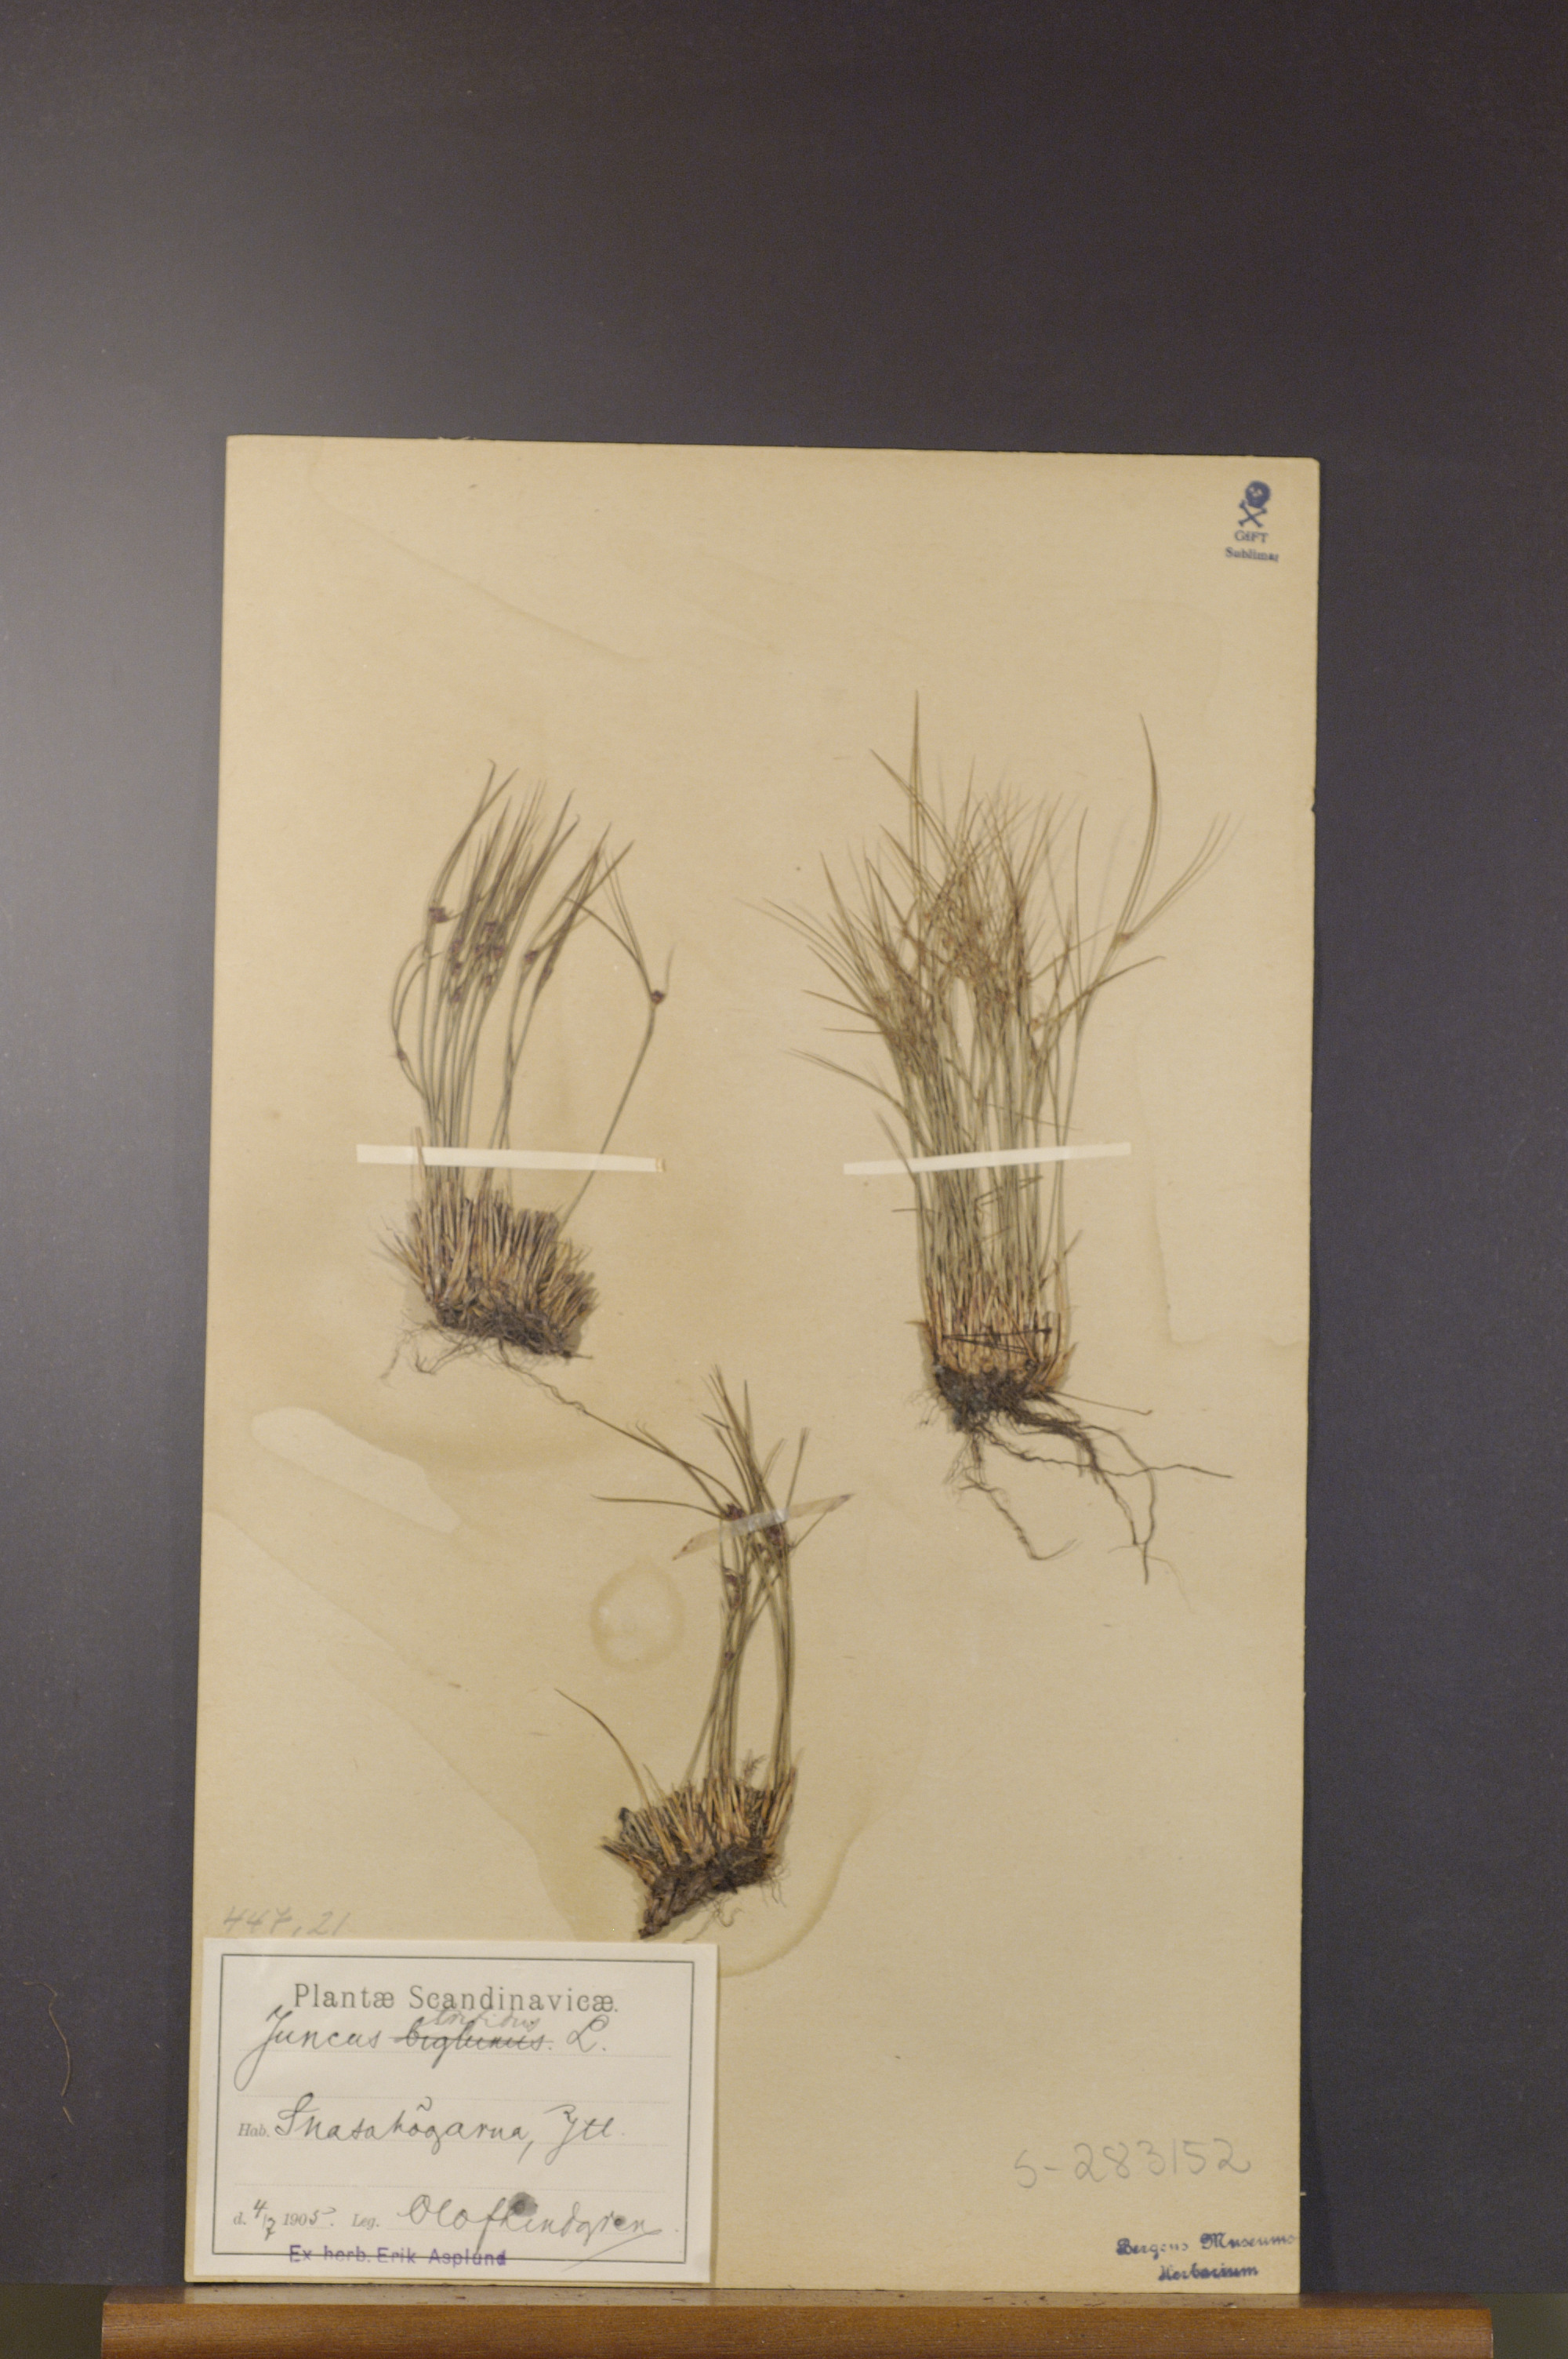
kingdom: Plantae
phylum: Tracheophyta
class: Liliopsida
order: Poales
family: Juncaceae
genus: Oreojuncus
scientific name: Oreojuncus trifidus
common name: Highland rush
